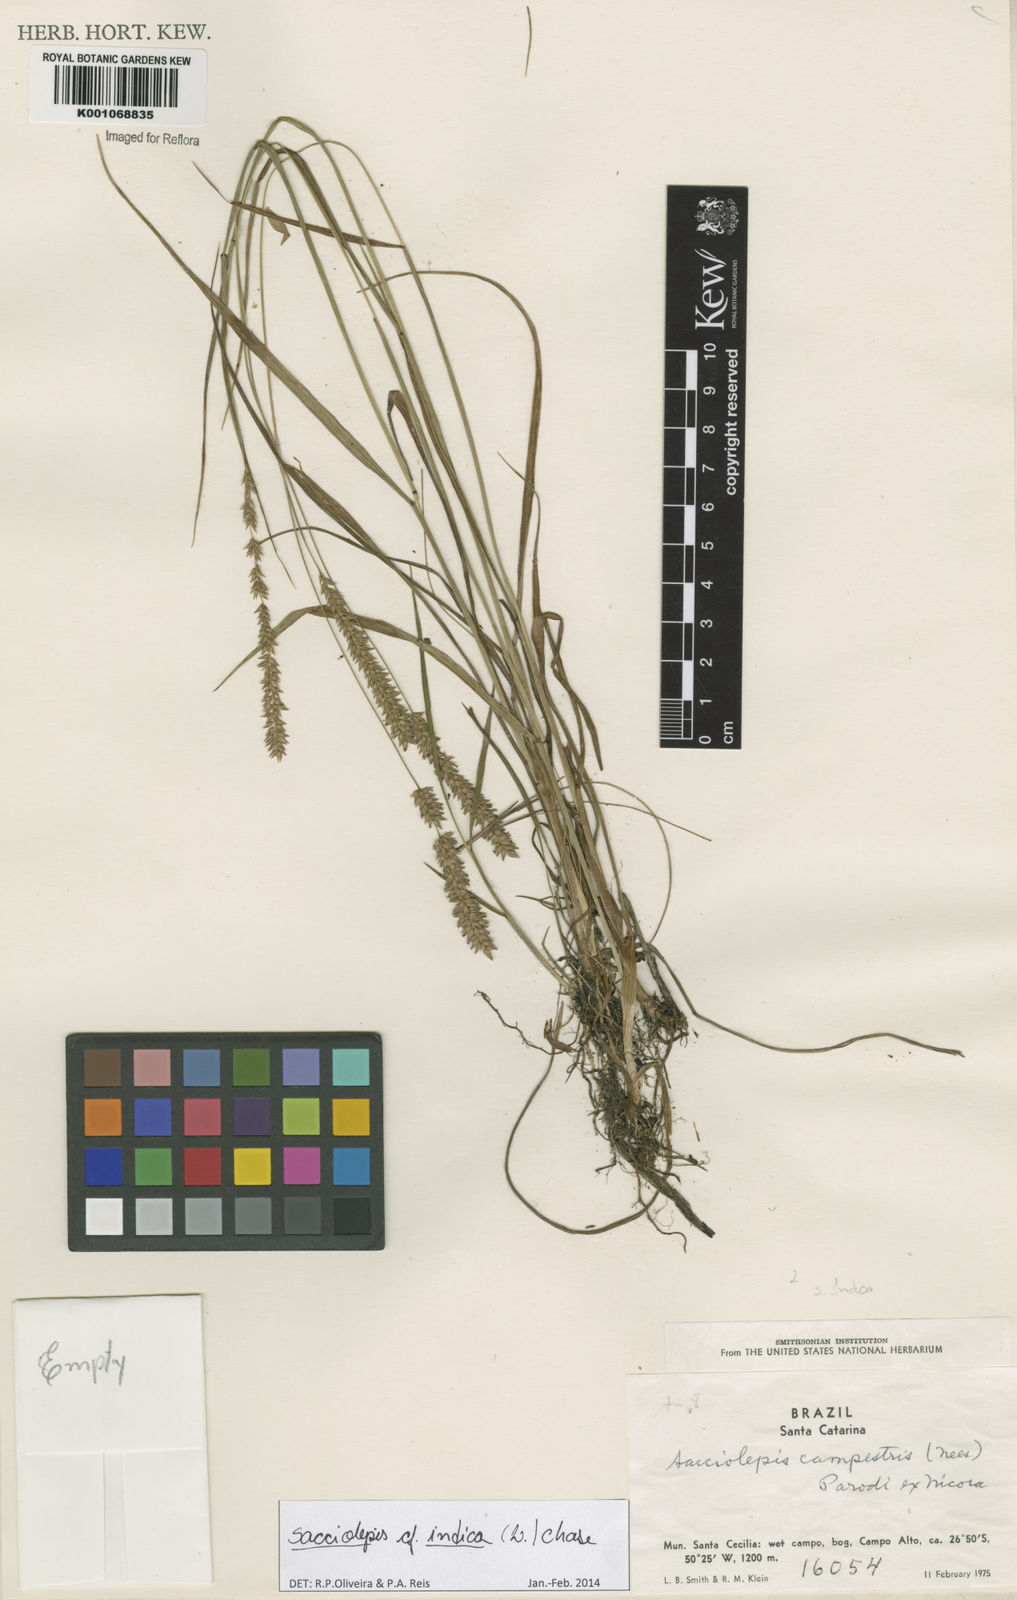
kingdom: Plantae
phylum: Tracheophyta
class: Liliopsida
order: Poales
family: Poaceae
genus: Sacciolepis
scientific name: Sacciolepis indica
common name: Glenwoodgrass
